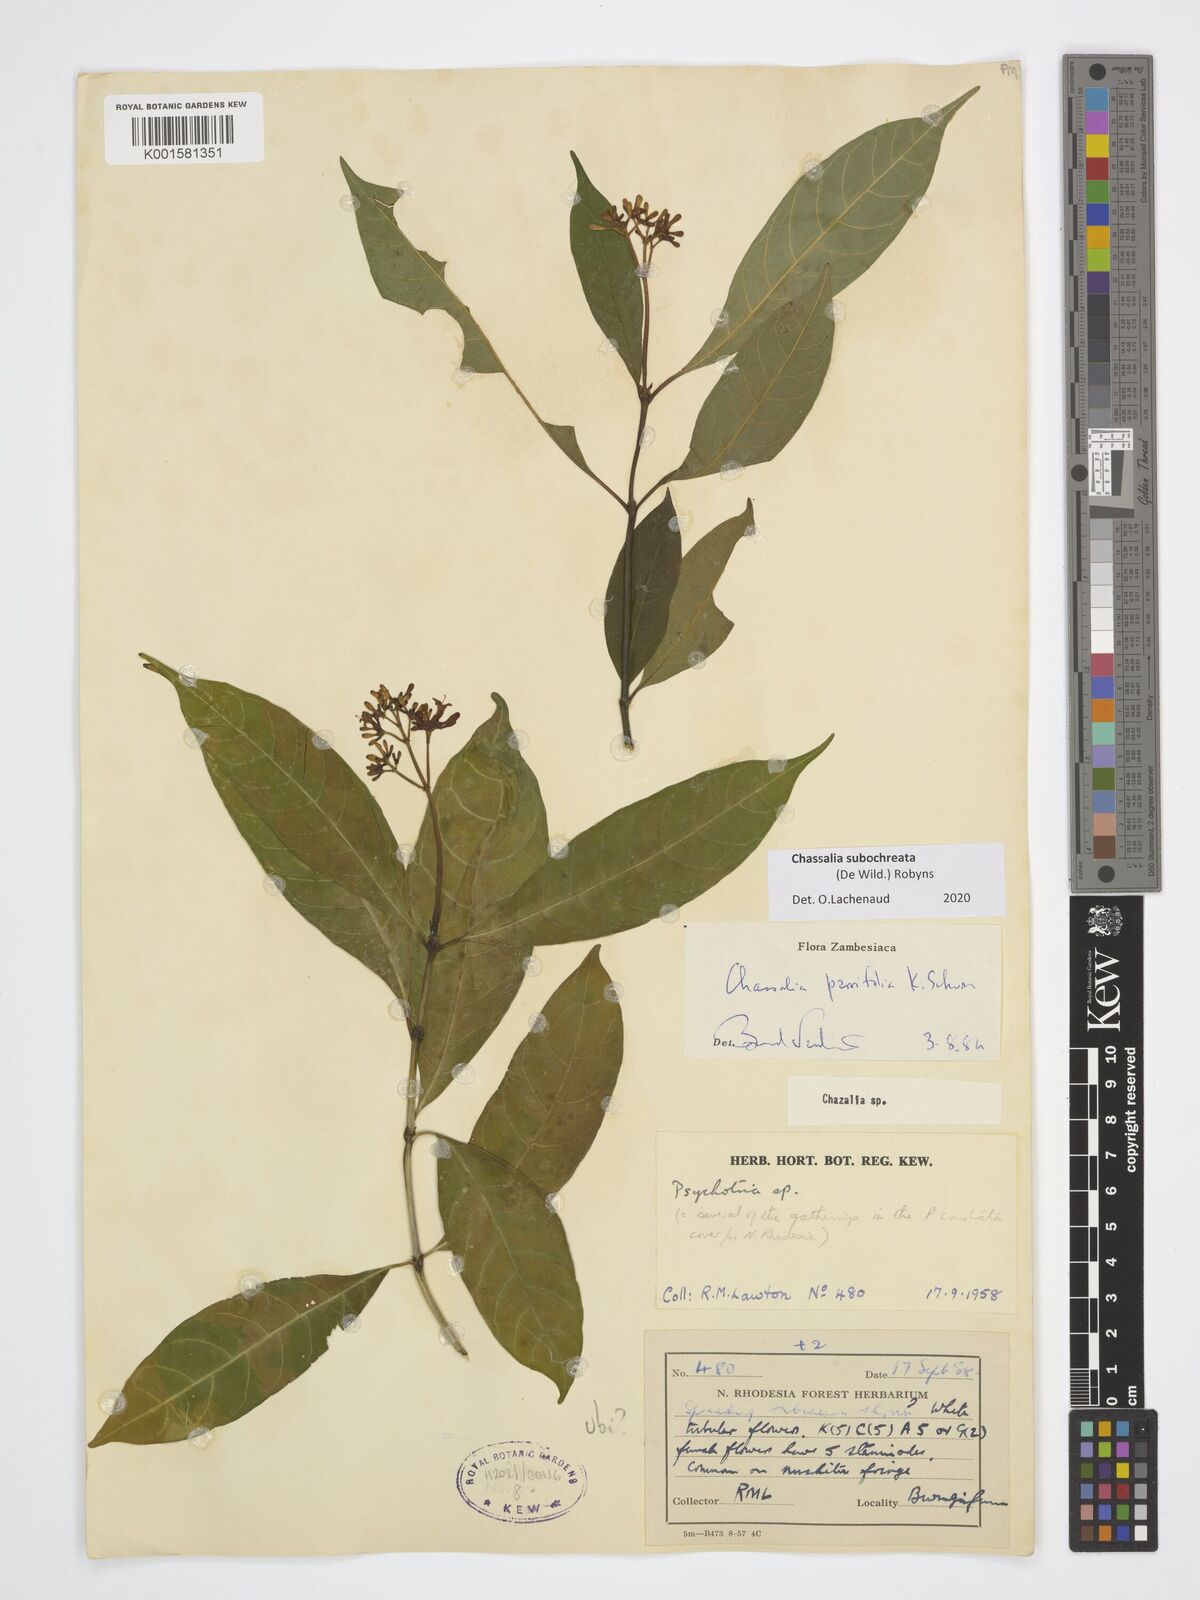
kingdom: Plantae
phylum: Tracheophyta
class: Magnoliopsida
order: Gentianales
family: Rubiaceae
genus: Chassalia
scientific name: Chassalia subochreata
